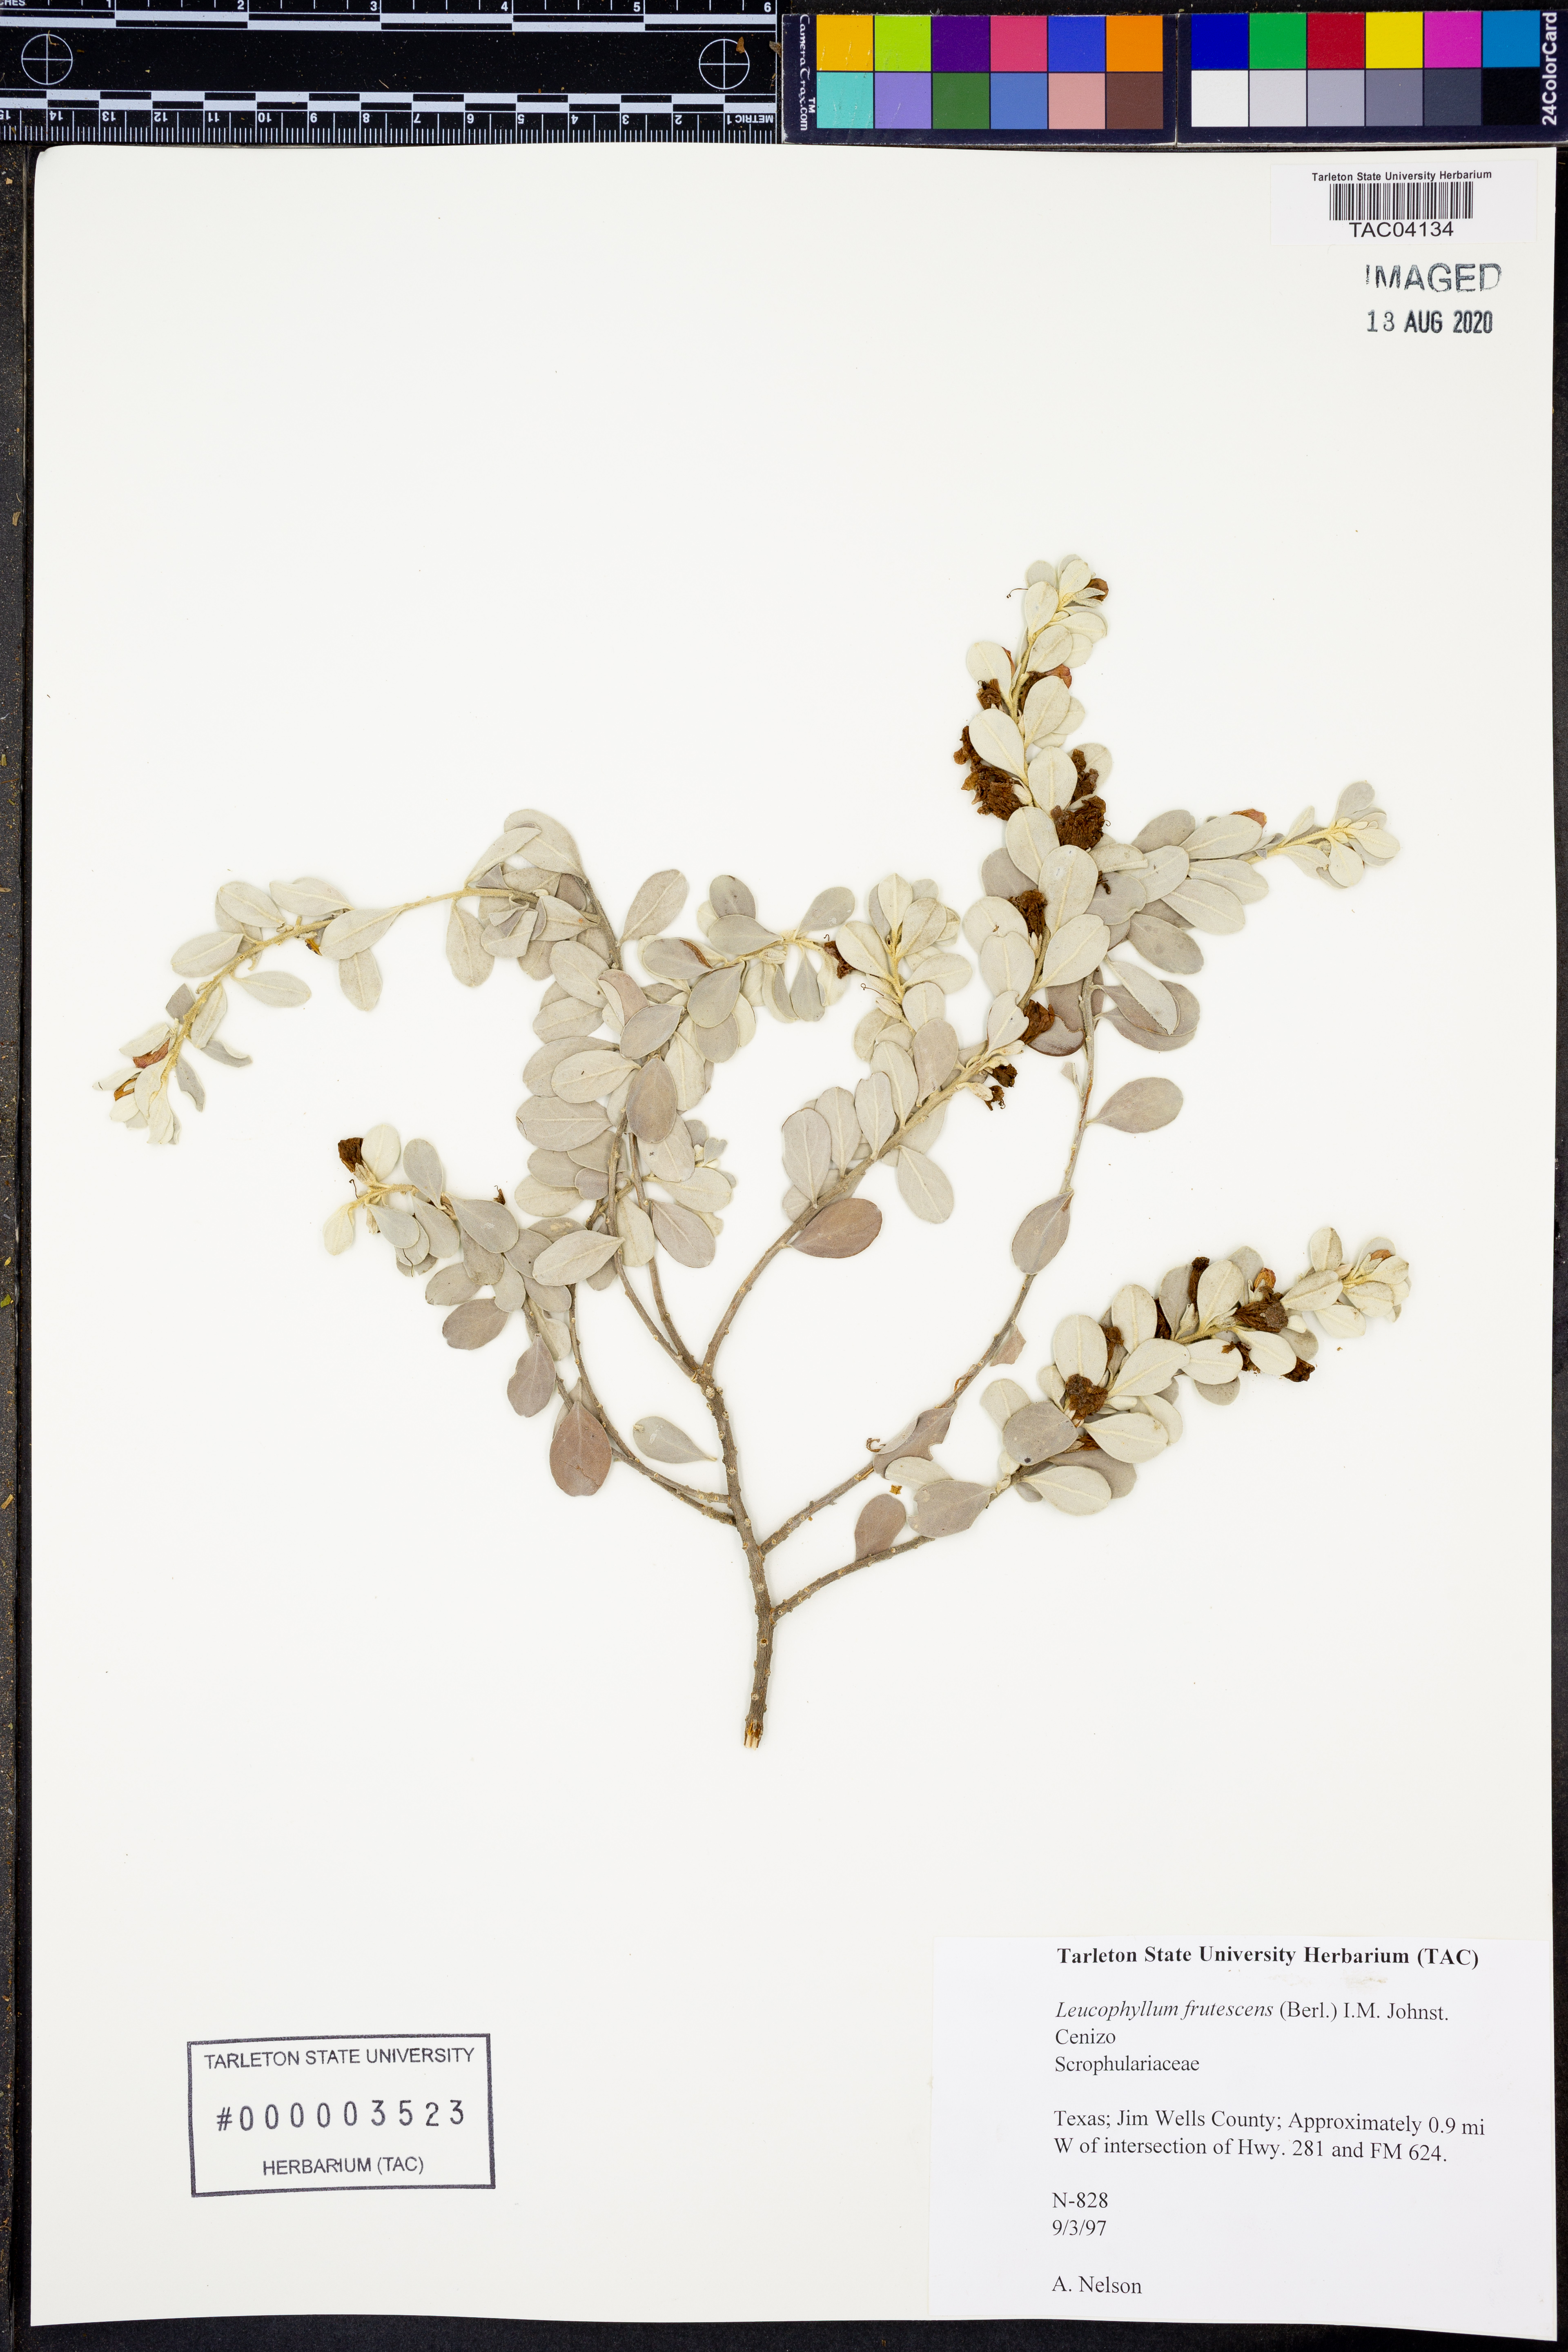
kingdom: Plantae
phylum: Tracheophyta
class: Magnoliopsida
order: Lamiales
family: Scrophulariaceae
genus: Leucophyllum
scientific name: Leucophyllum frutescens
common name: Texas silverleaf
